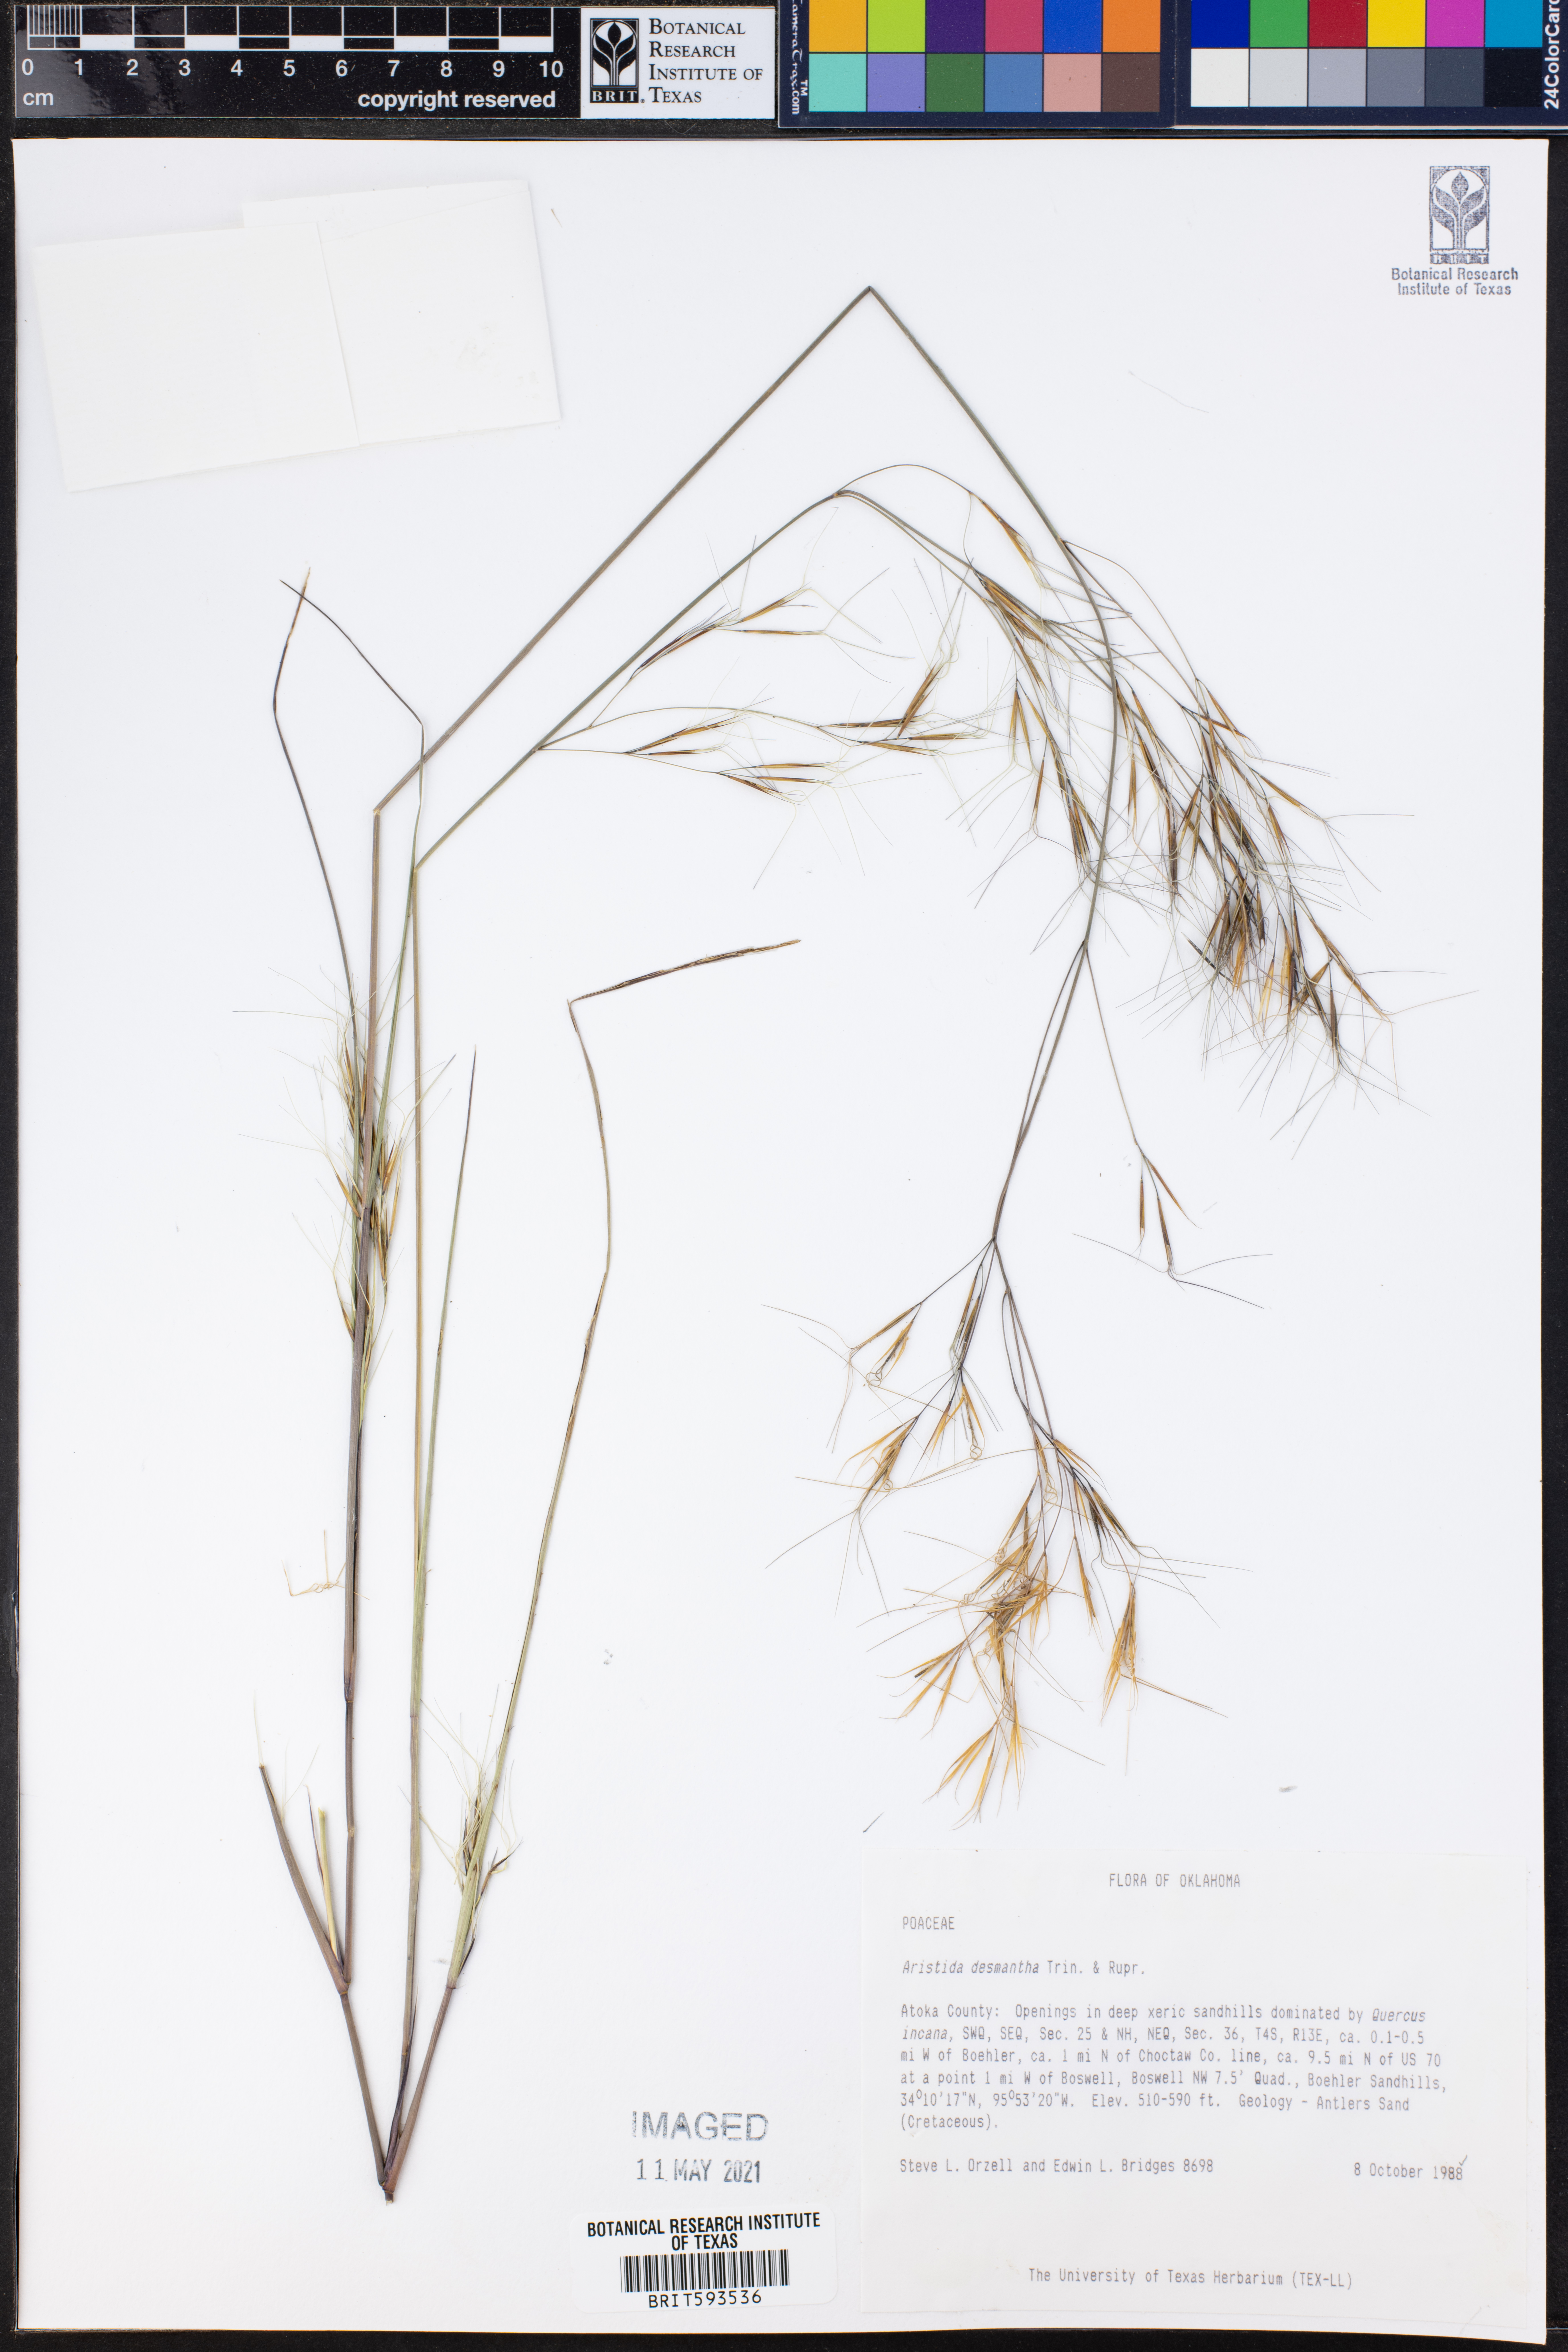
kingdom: Plantae
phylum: Tracheophyta
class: Liliopsida
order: Poales
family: Poaceae
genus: Aristida
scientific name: Aristida desmantha
